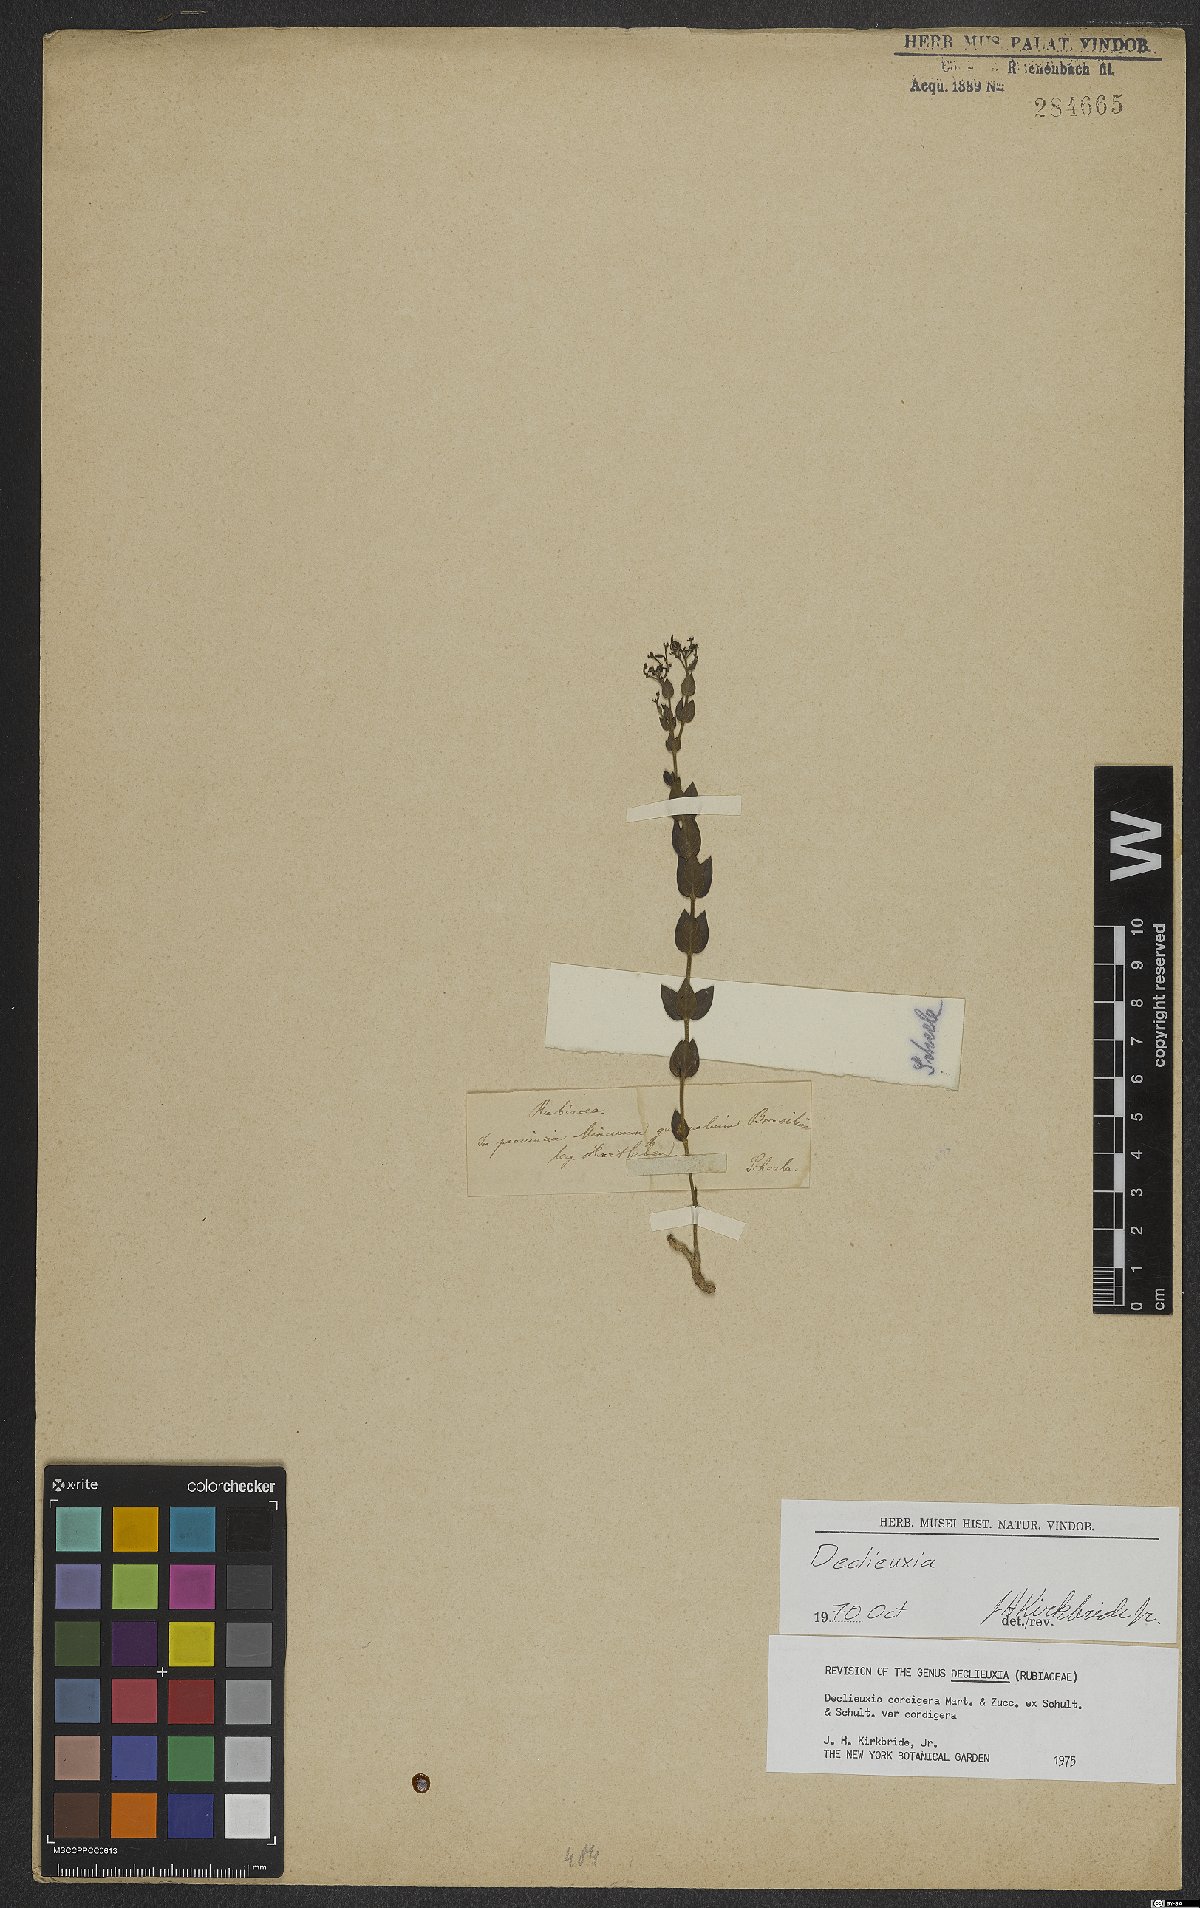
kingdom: Plantae
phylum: Tracheophyta
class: Magnoliopsida
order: Gentianales
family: Rubiaceae
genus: Declieuxia
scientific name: Declieuxia cordigera
